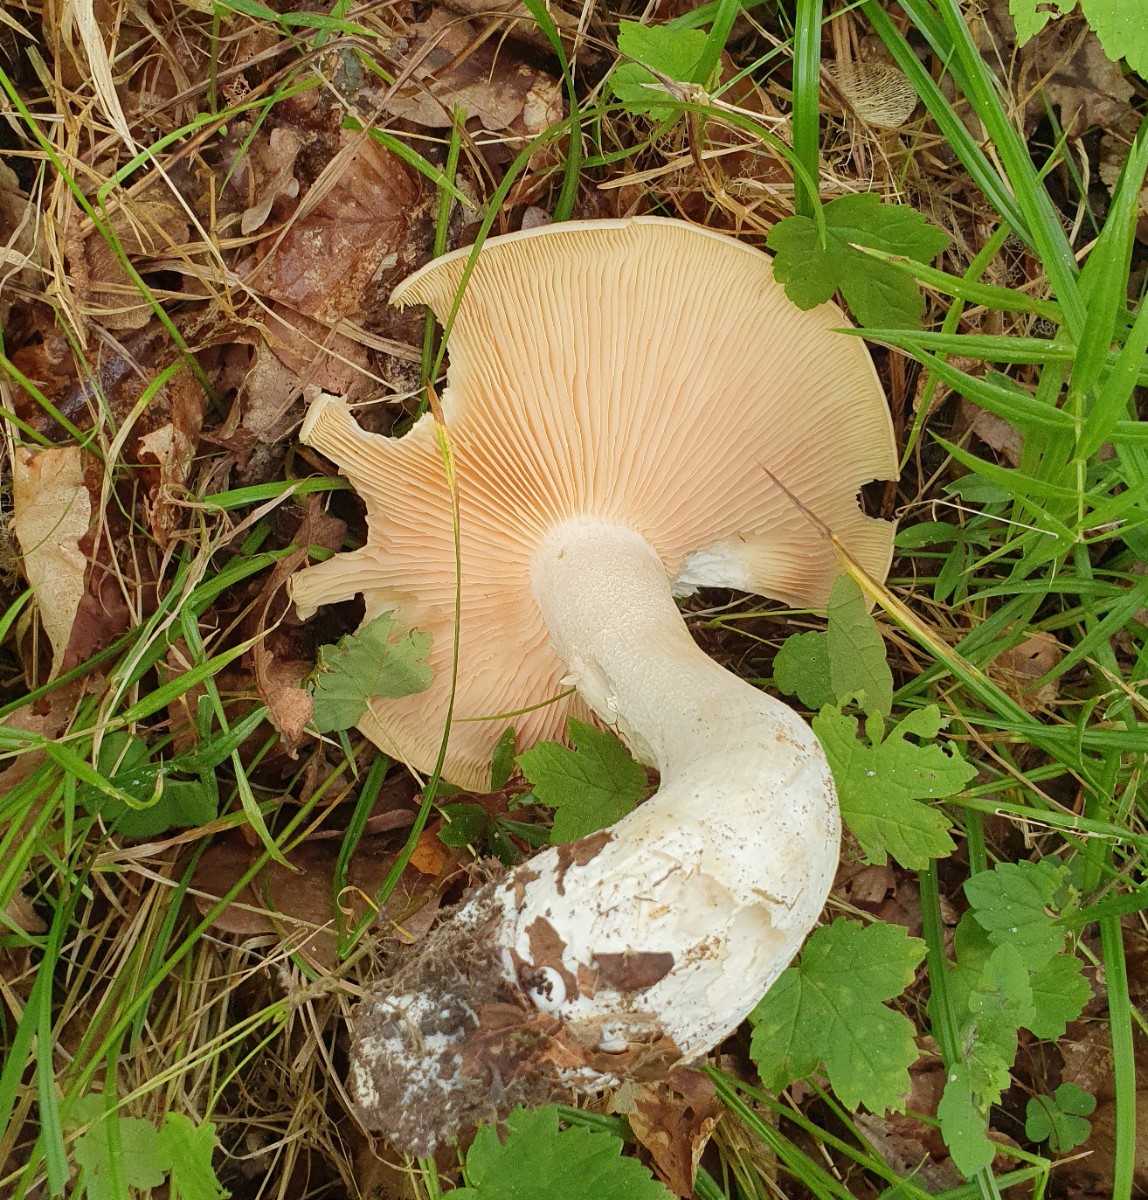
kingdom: Fungi
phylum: Basidiomycota
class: Agaricomycetes
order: Agaricales
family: Entolomataceae
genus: Entoloma
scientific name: Entoloma sinuatum
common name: giftig rødblad
